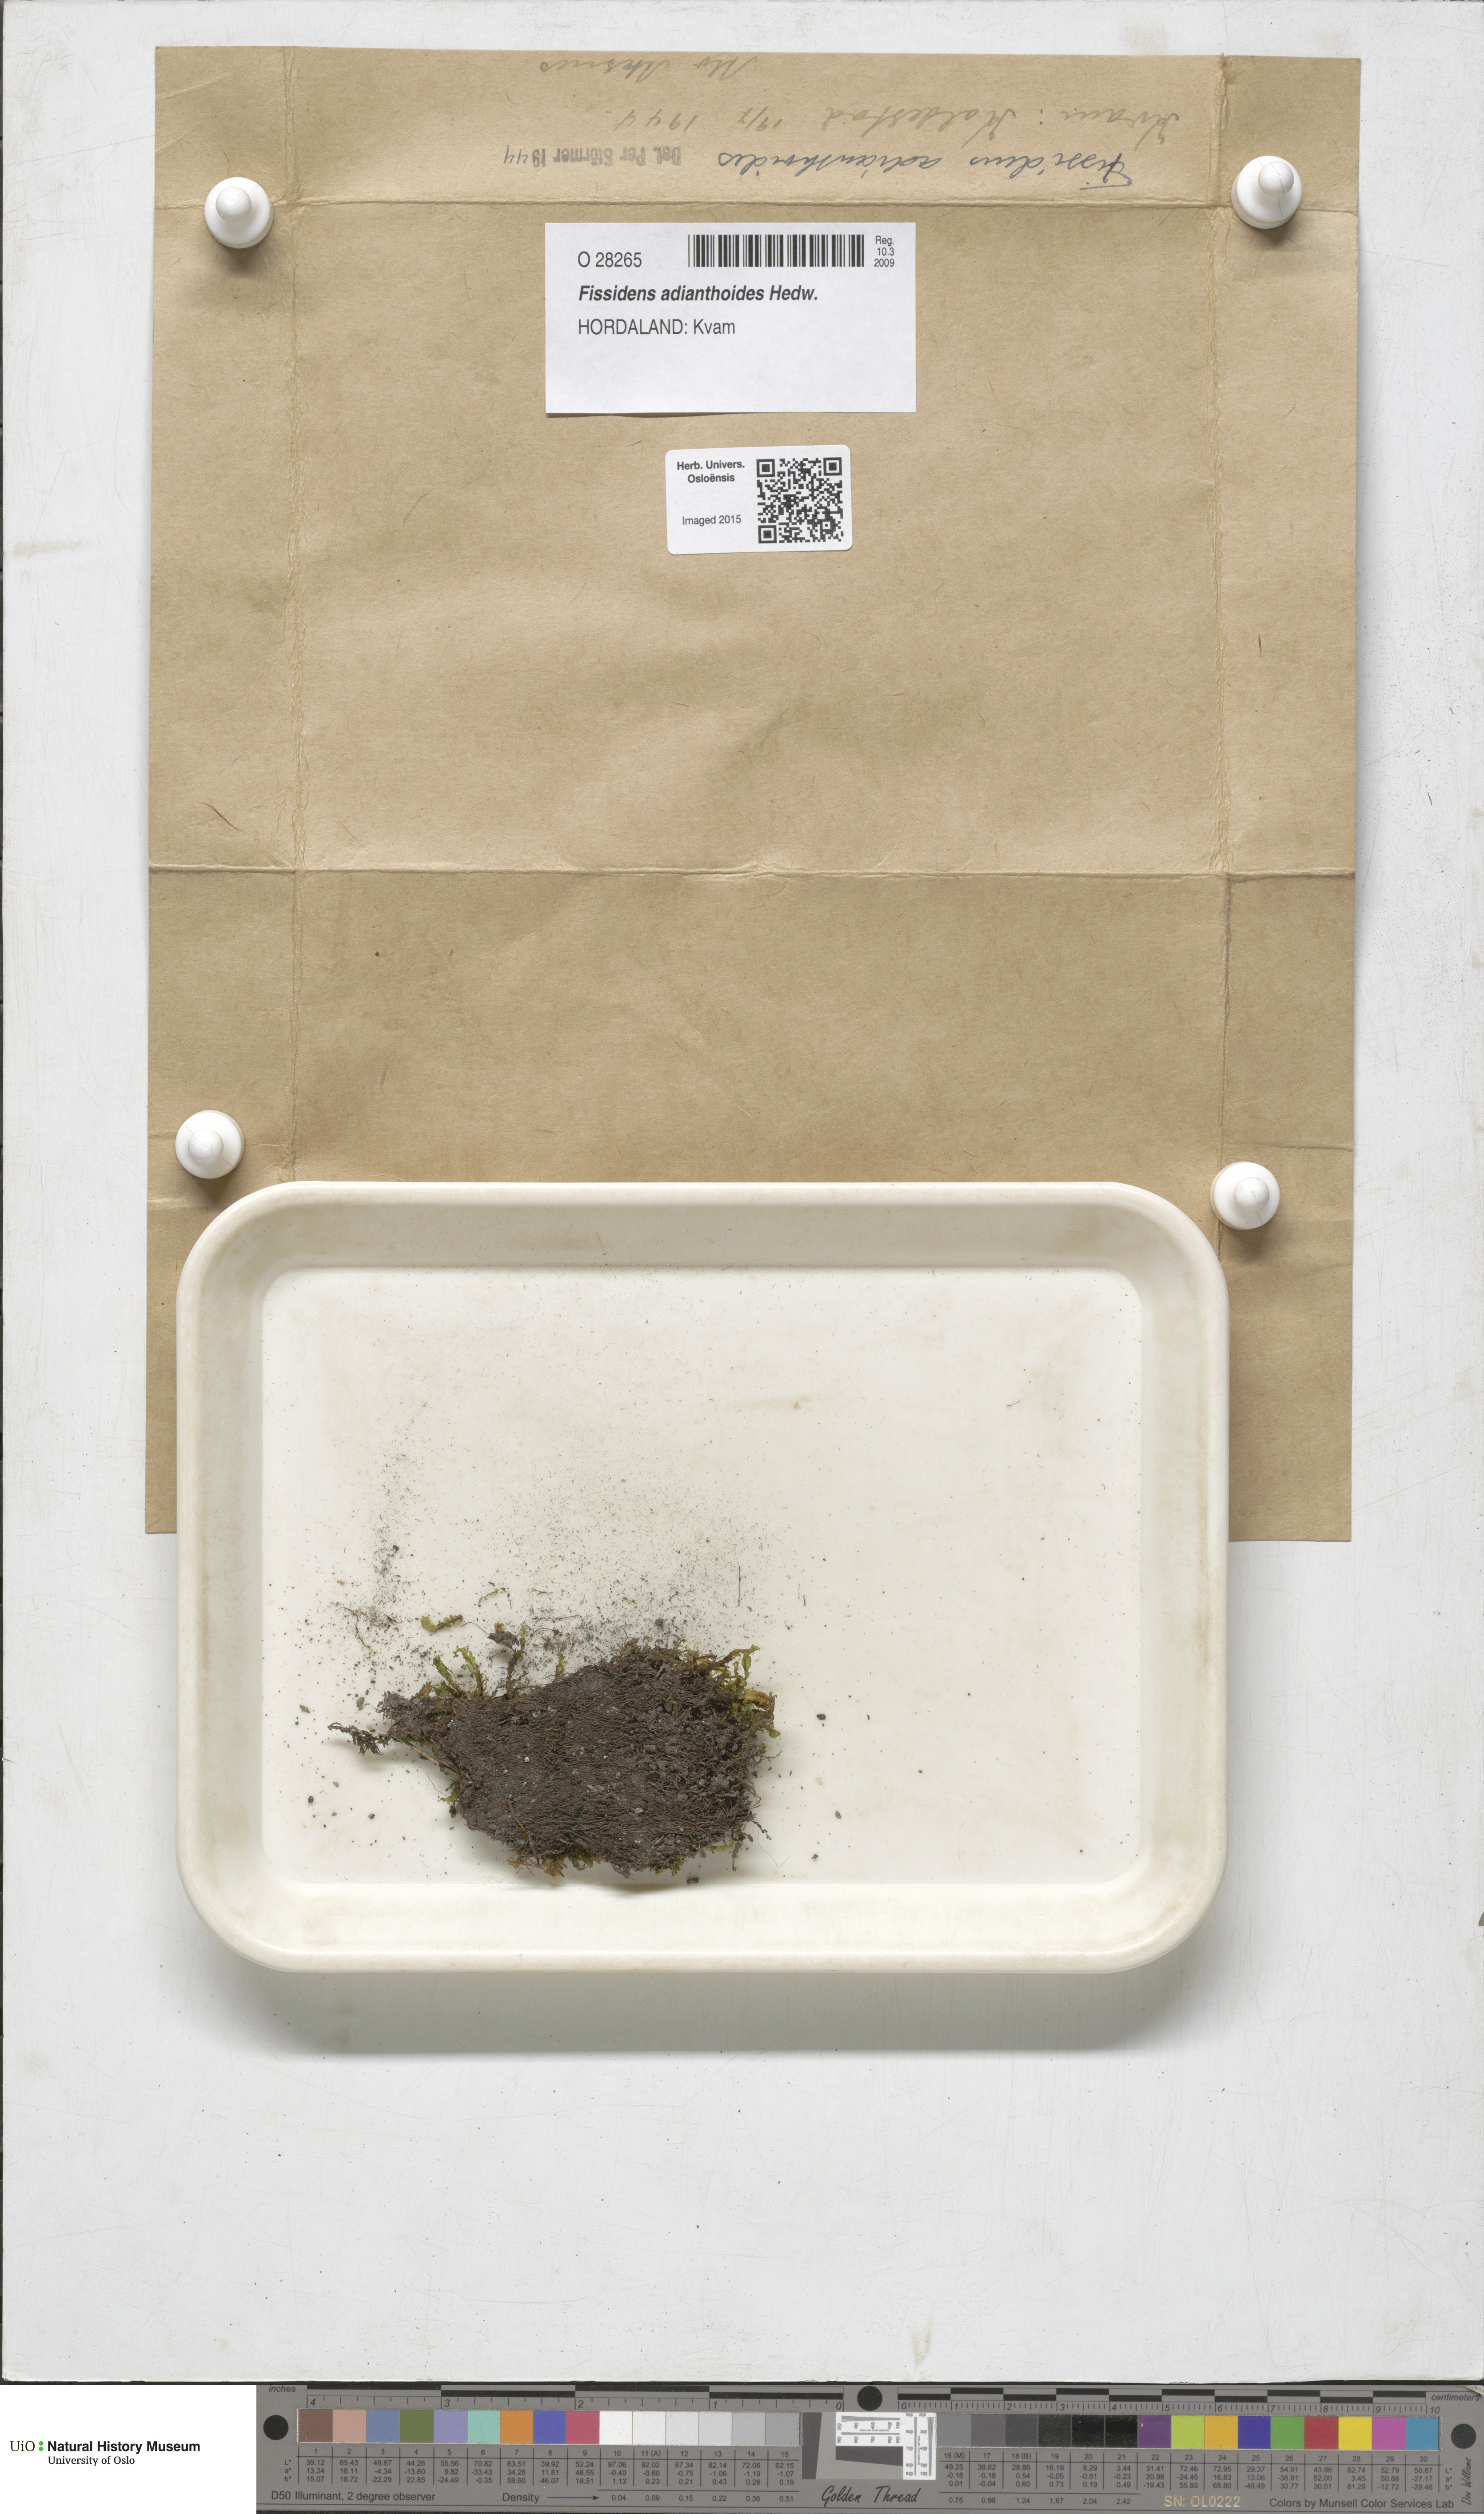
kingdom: Plantae
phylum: Bryophyta
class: Bryopsida
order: Dicranales
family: Fissidentaceae
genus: Fissidens
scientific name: Fissidens adianthoides
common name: Maidenhair pocket moss
